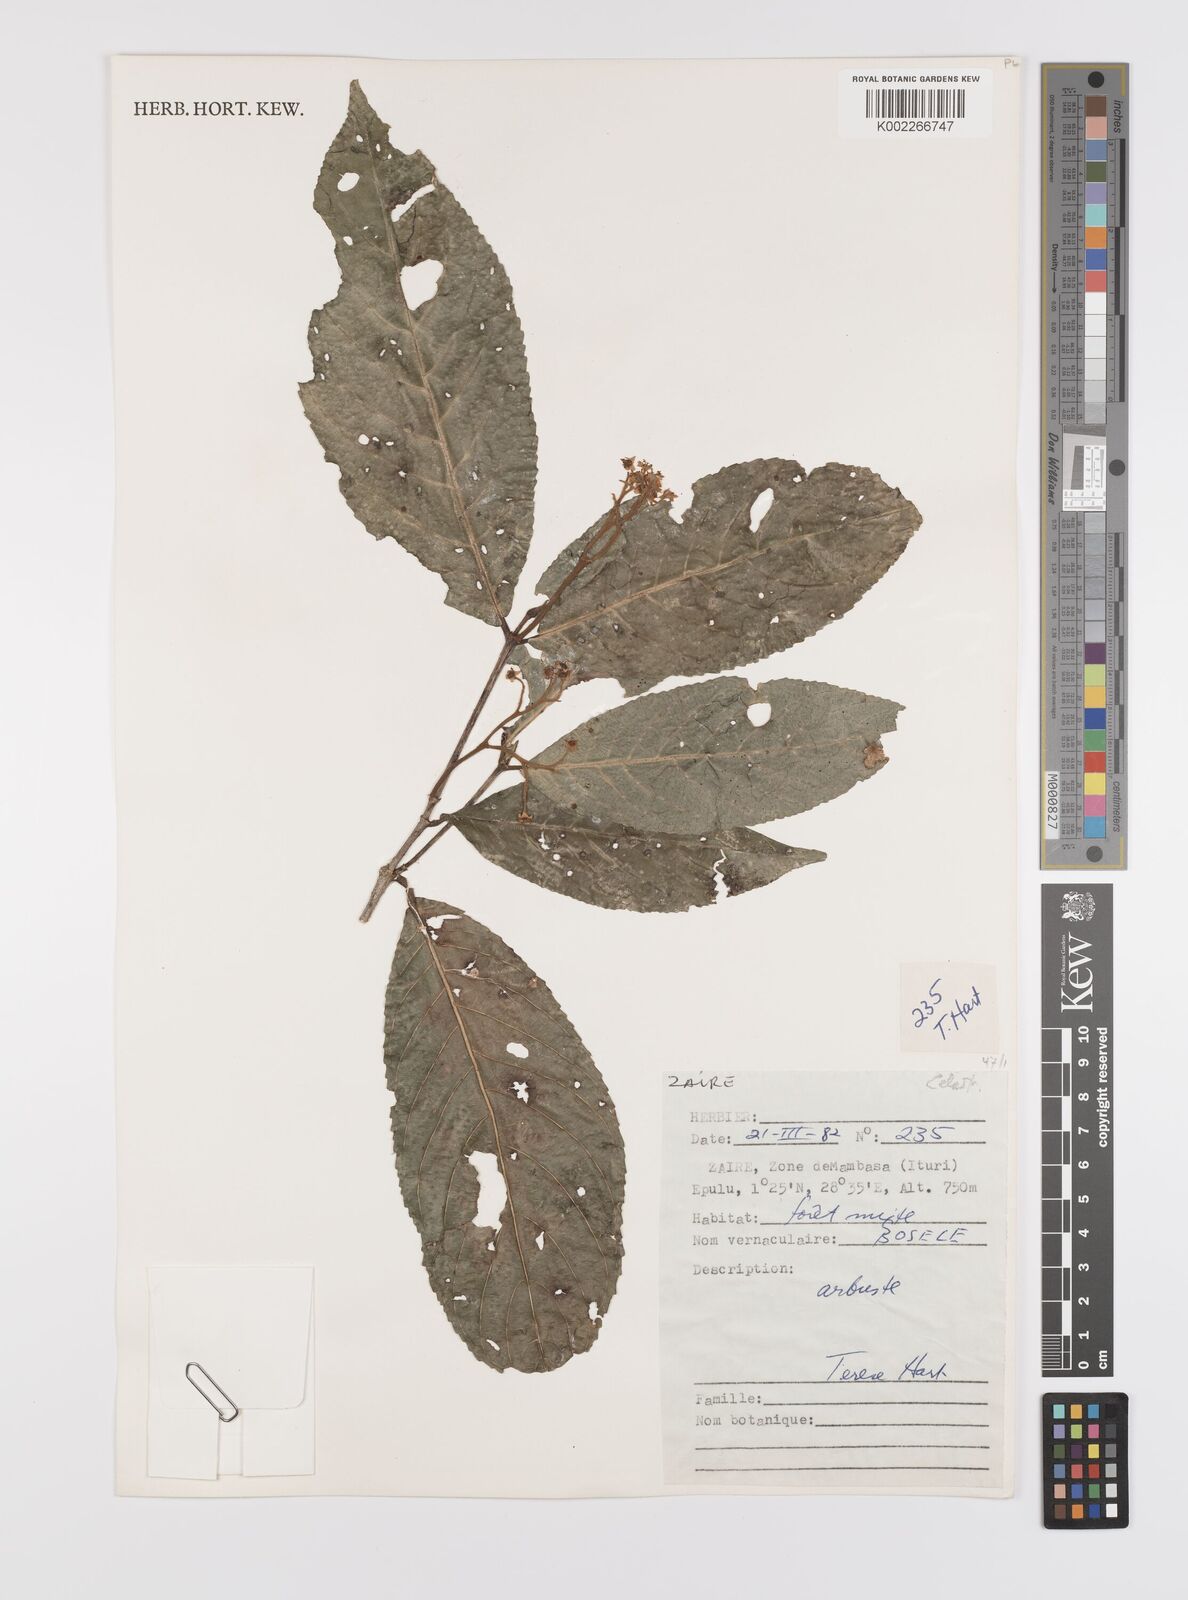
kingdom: Plantae
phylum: Tracheophyta
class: Magnoliopsida
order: Celastrales
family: Celastraceae
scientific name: Celastraceae
